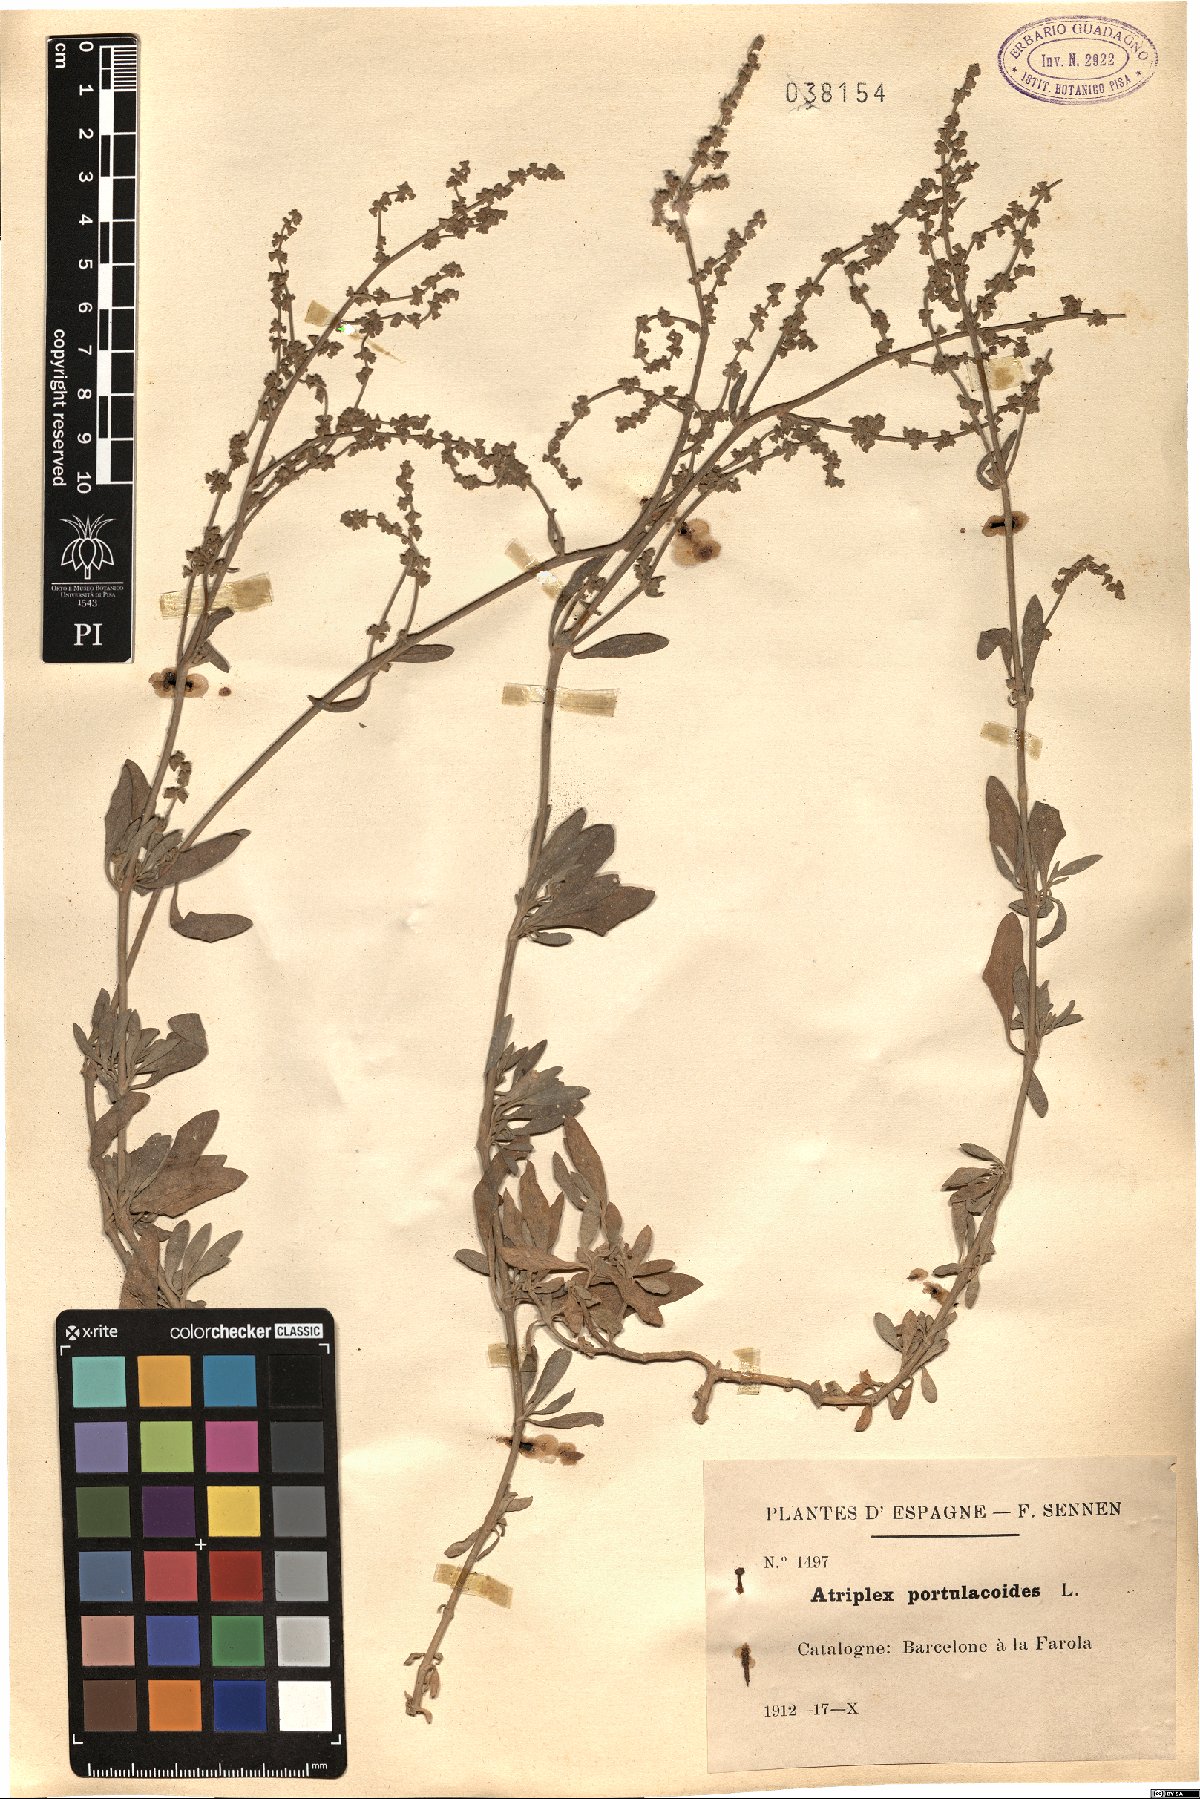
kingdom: Plantae
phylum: Tracheophyta
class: Magnoliopsida
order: Caryophyllales
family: Amaranthaceae
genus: Halimione
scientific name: Halimione portulacoides
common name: Sea-purslane
